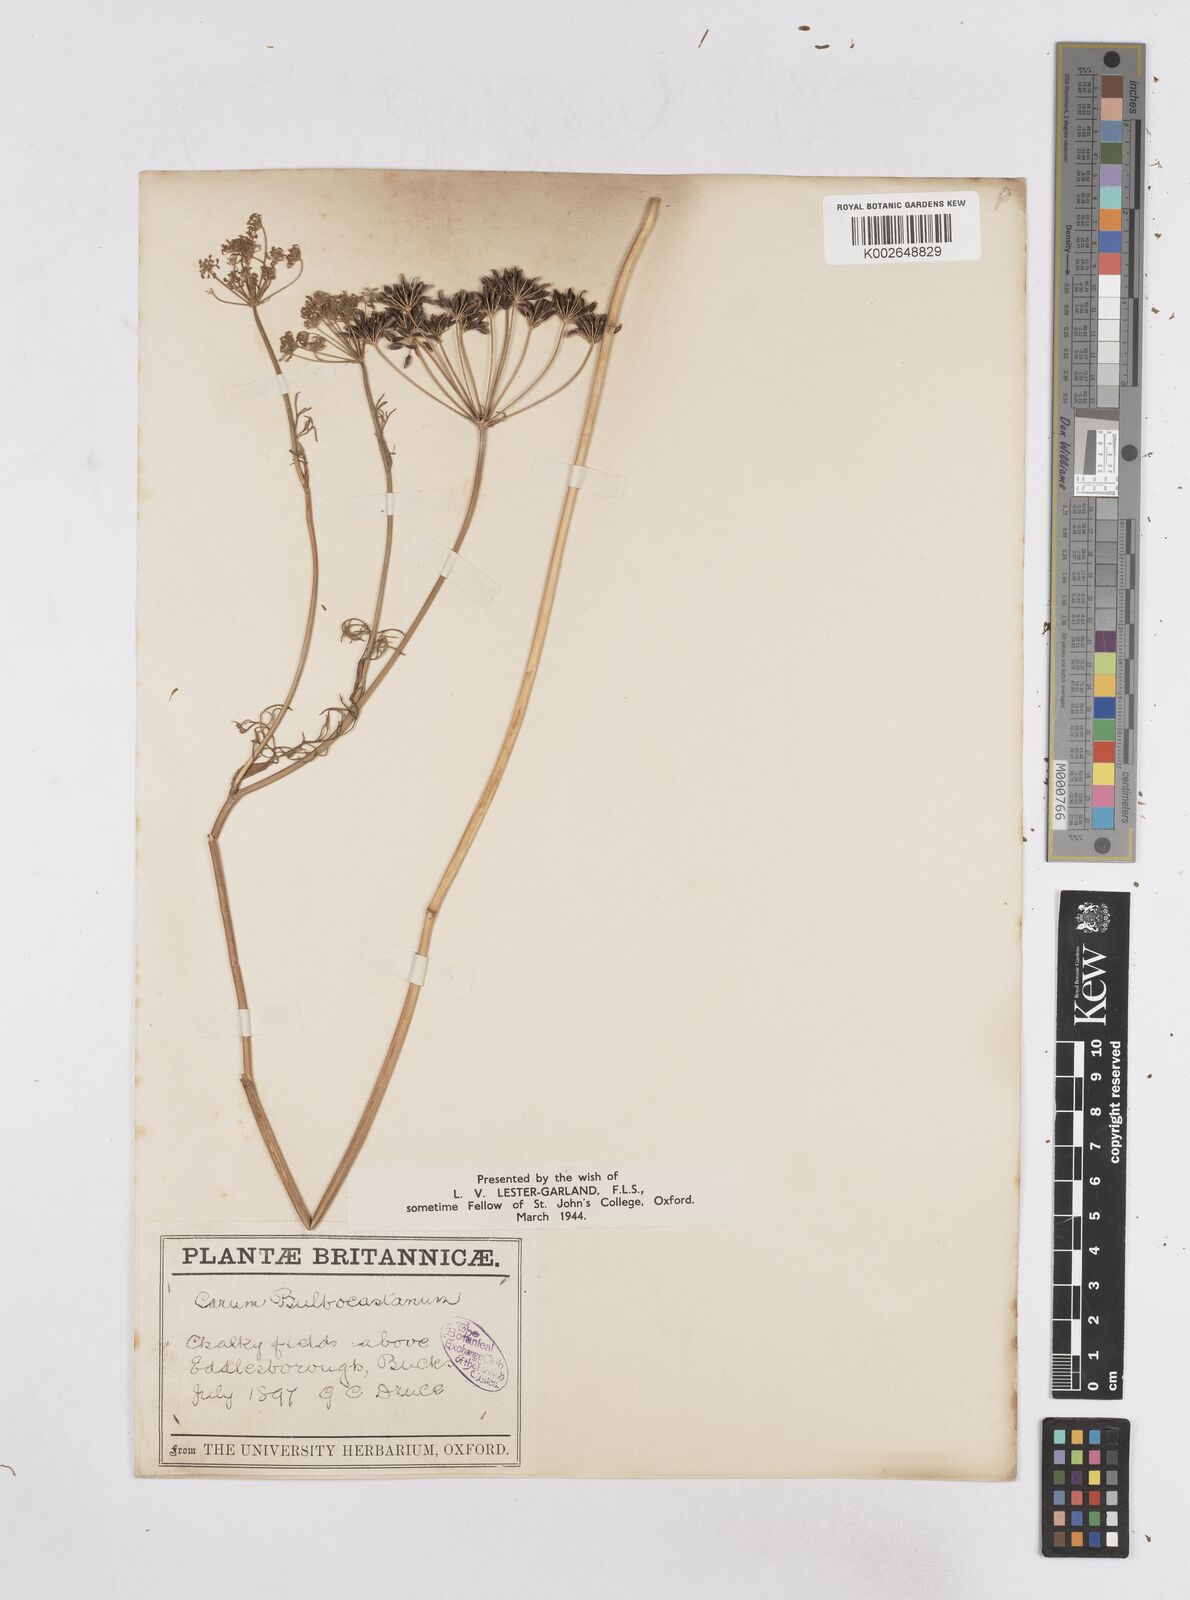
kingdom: Plantae
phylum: Tracheophyta
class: Magnoliopsida
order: Apiales
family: Apiaceae
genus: Bunium
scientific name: Bunium bulbocastanum
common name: Great pignut
